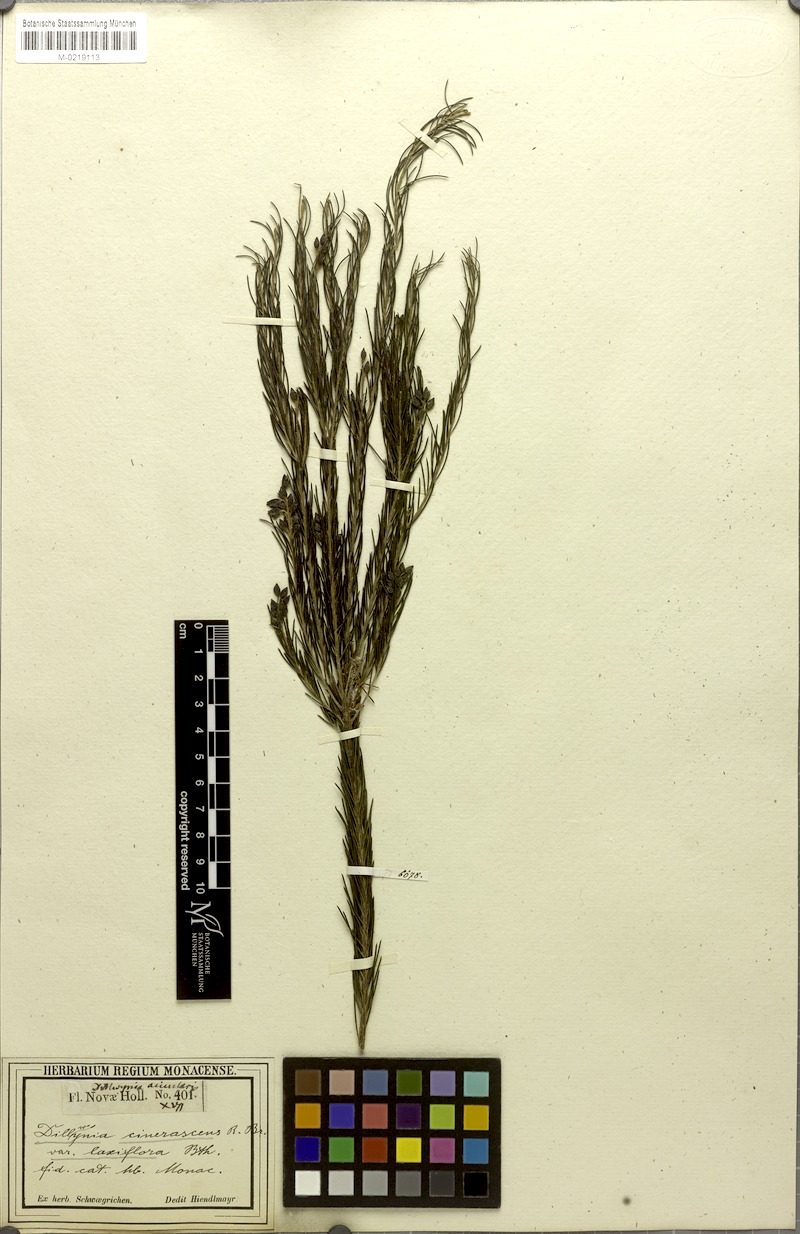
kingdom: Plantae
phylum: Tracheophyta
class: Magnoliopsida
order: Fabales
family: Fabaceae
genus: Dillwynia
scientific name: Dillwynia acicularis
